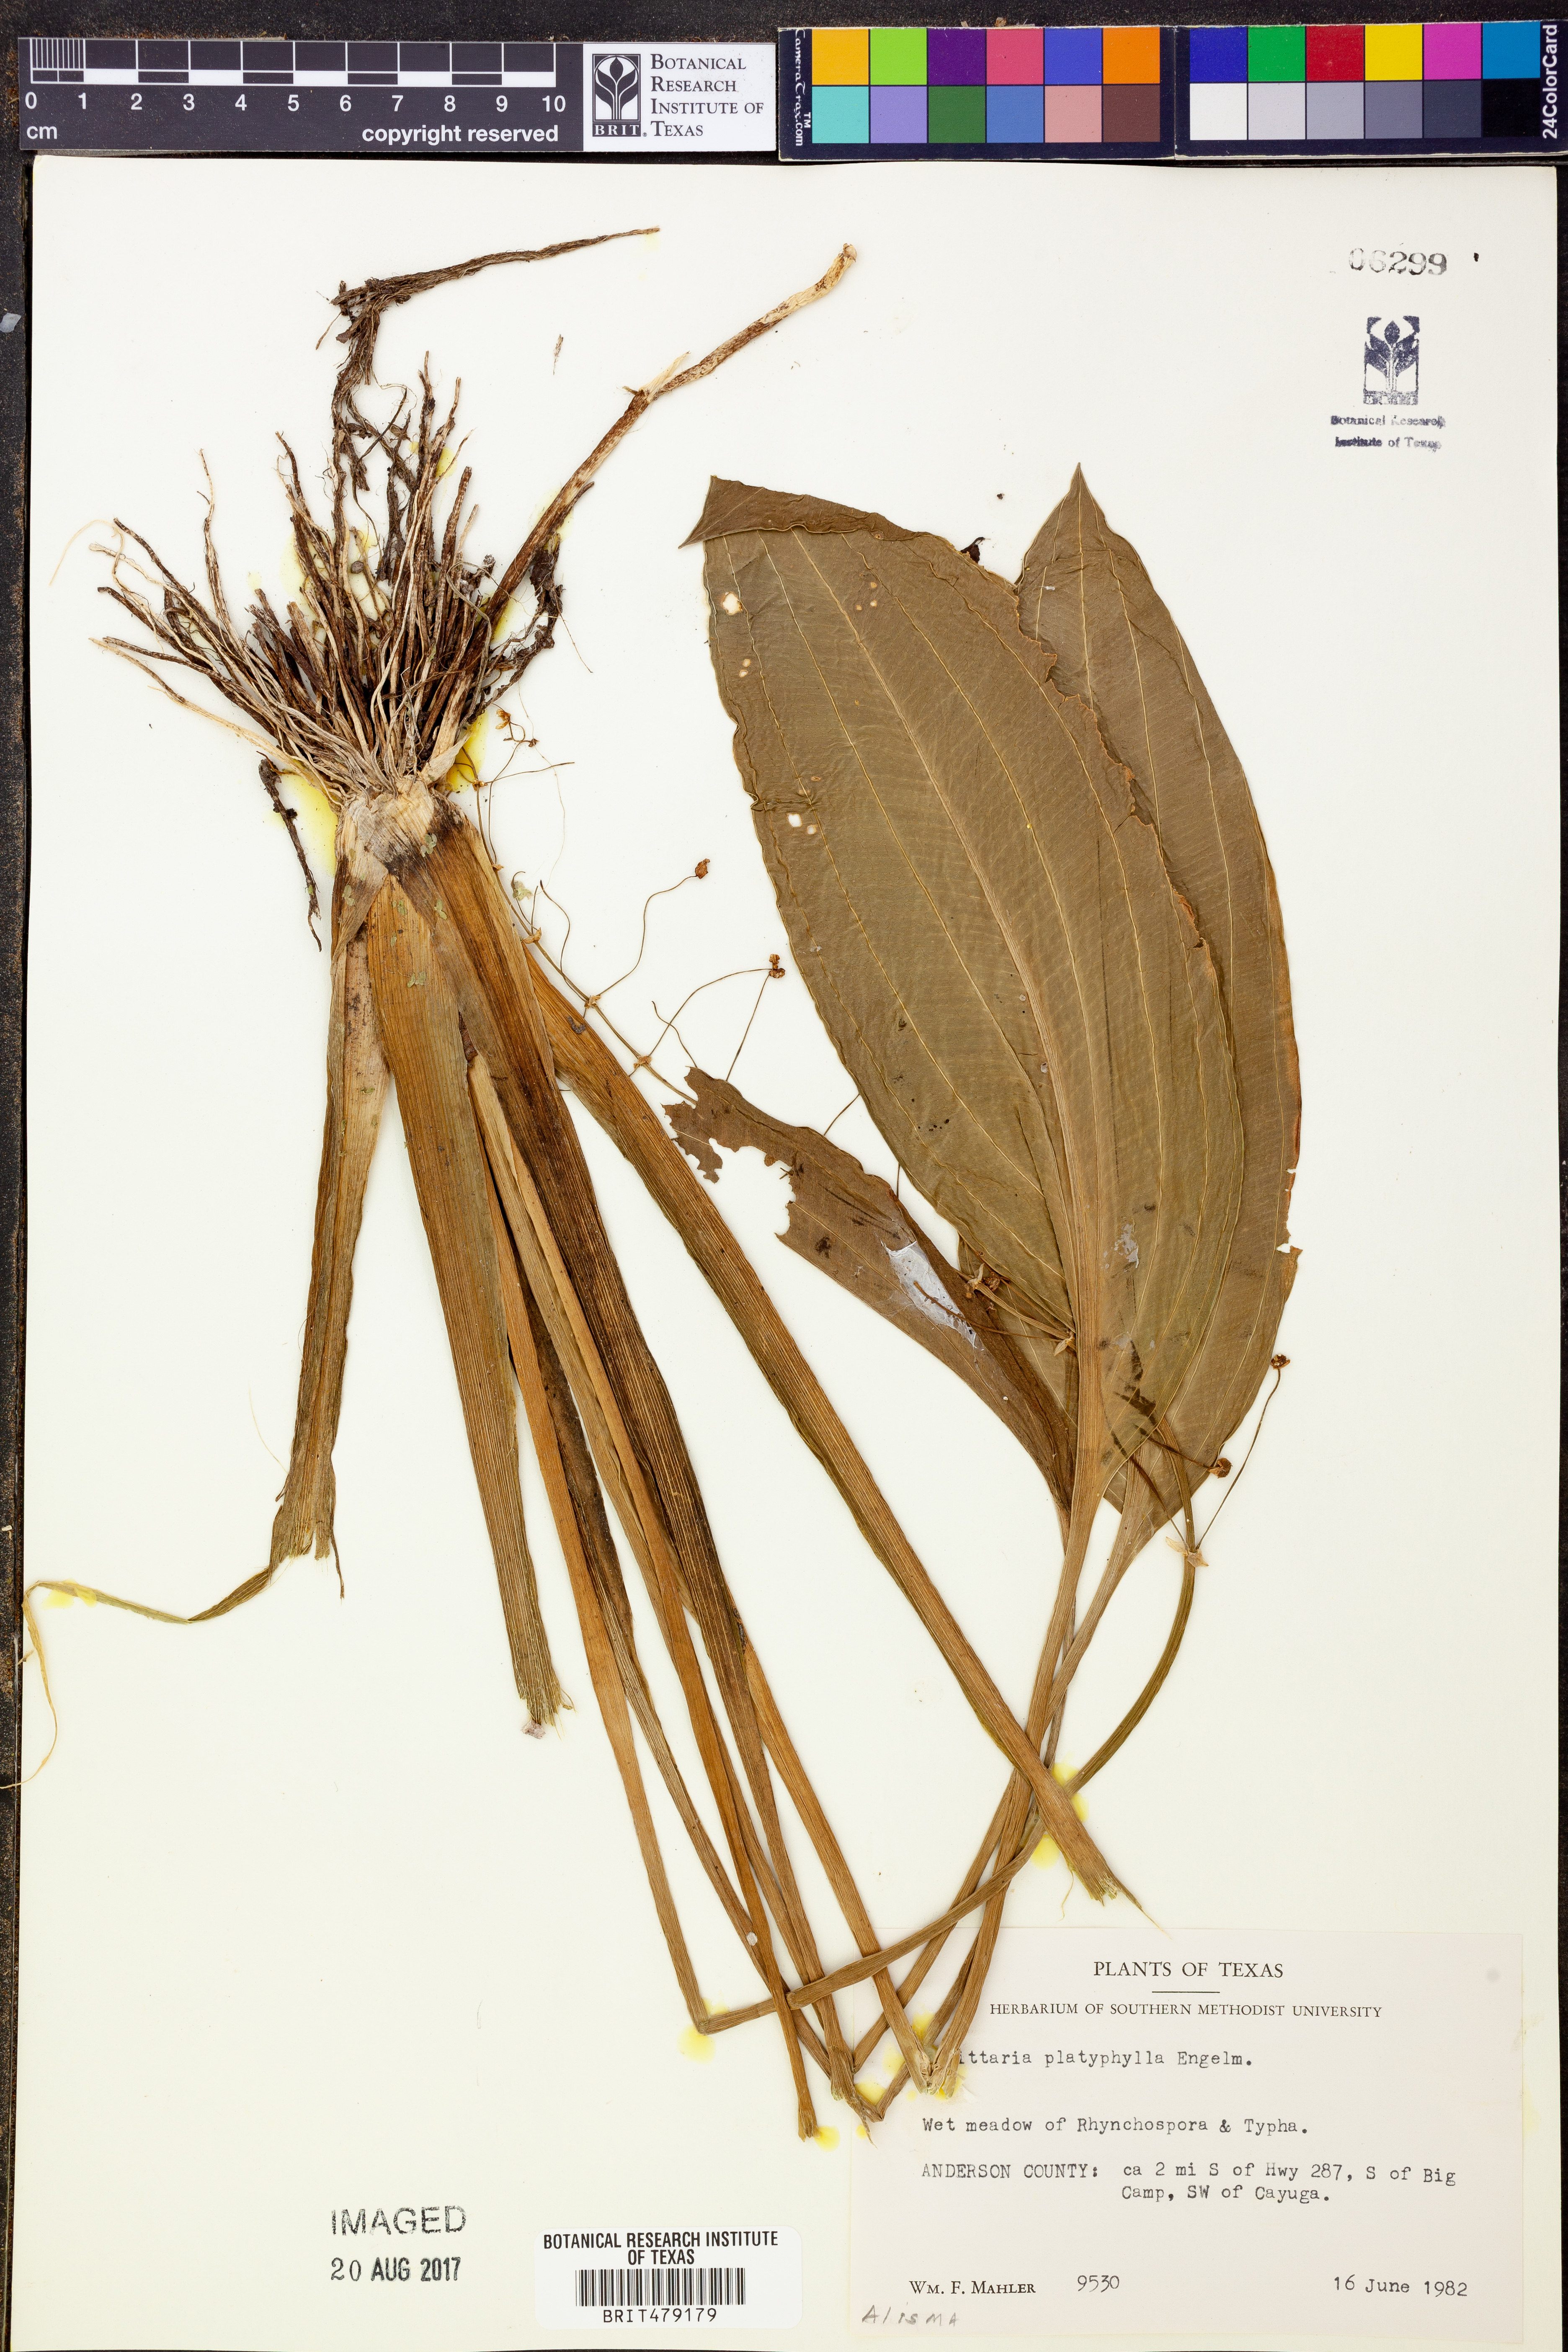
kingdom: Plantae
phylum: Tracheophyta
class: Liliopsida
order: Alismatales
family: Alismataceae
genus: Sagittaria
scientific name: Sagittaria platyphylla
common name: Broad-leaf arrowhead
